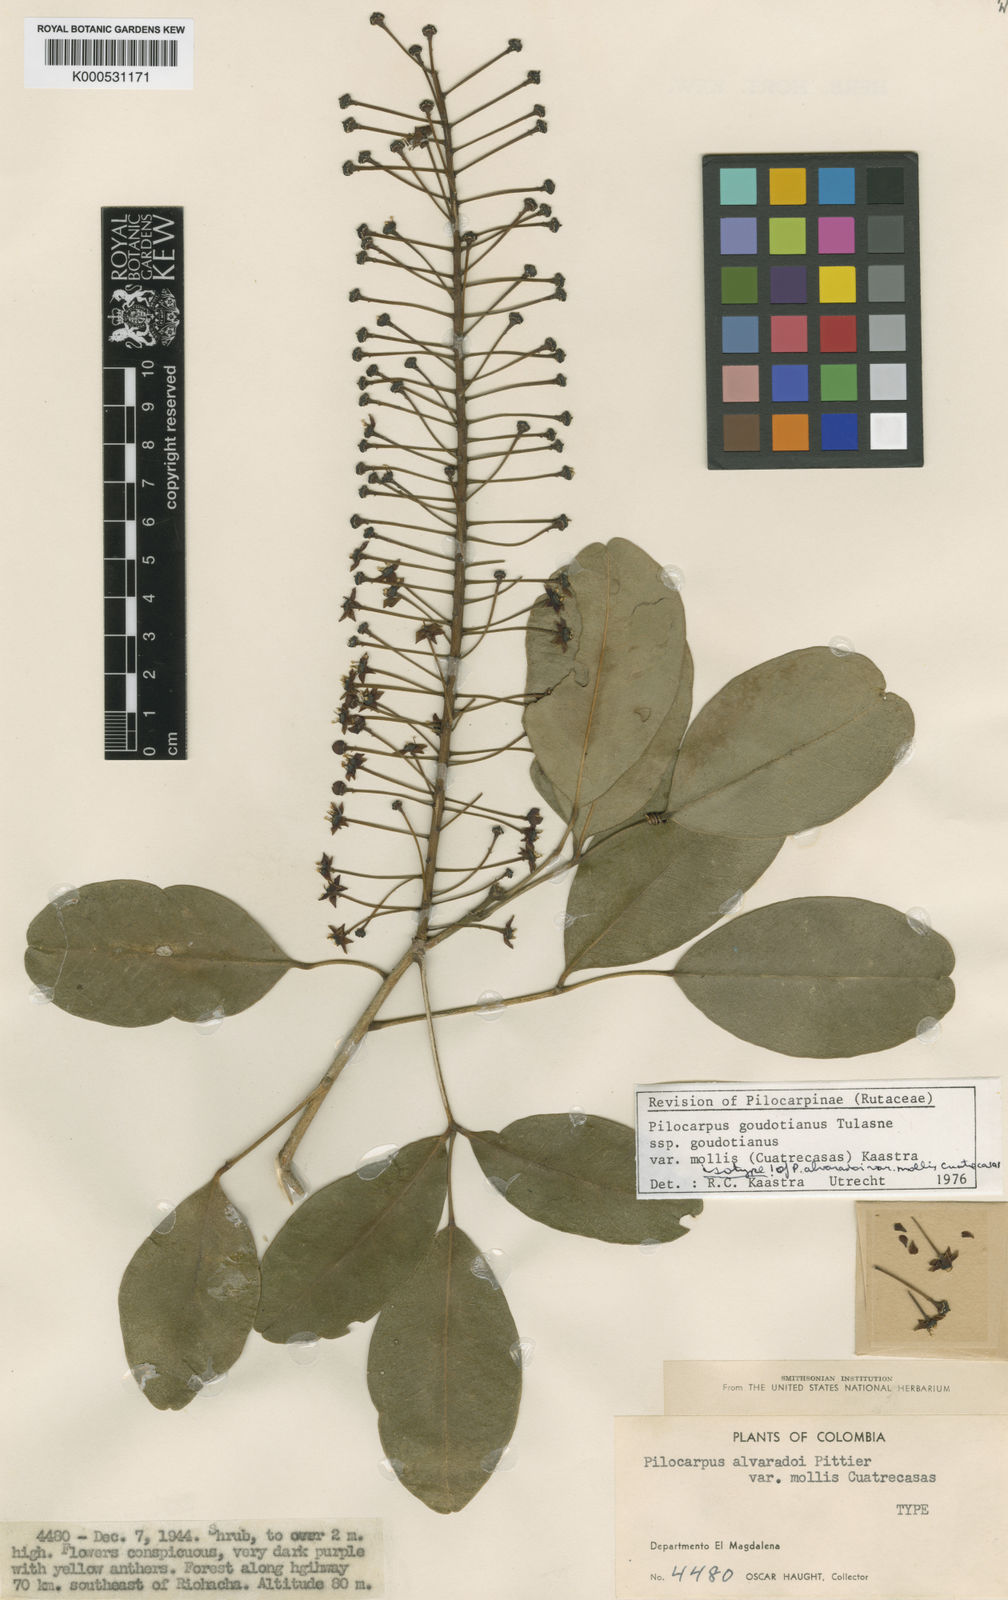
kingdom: Plantae
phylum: Tracheophyta
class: Magnoliopsida
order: Sapindales
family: Rutaceae
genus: Pilocarpus
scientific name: Pilocarpus racemosus
